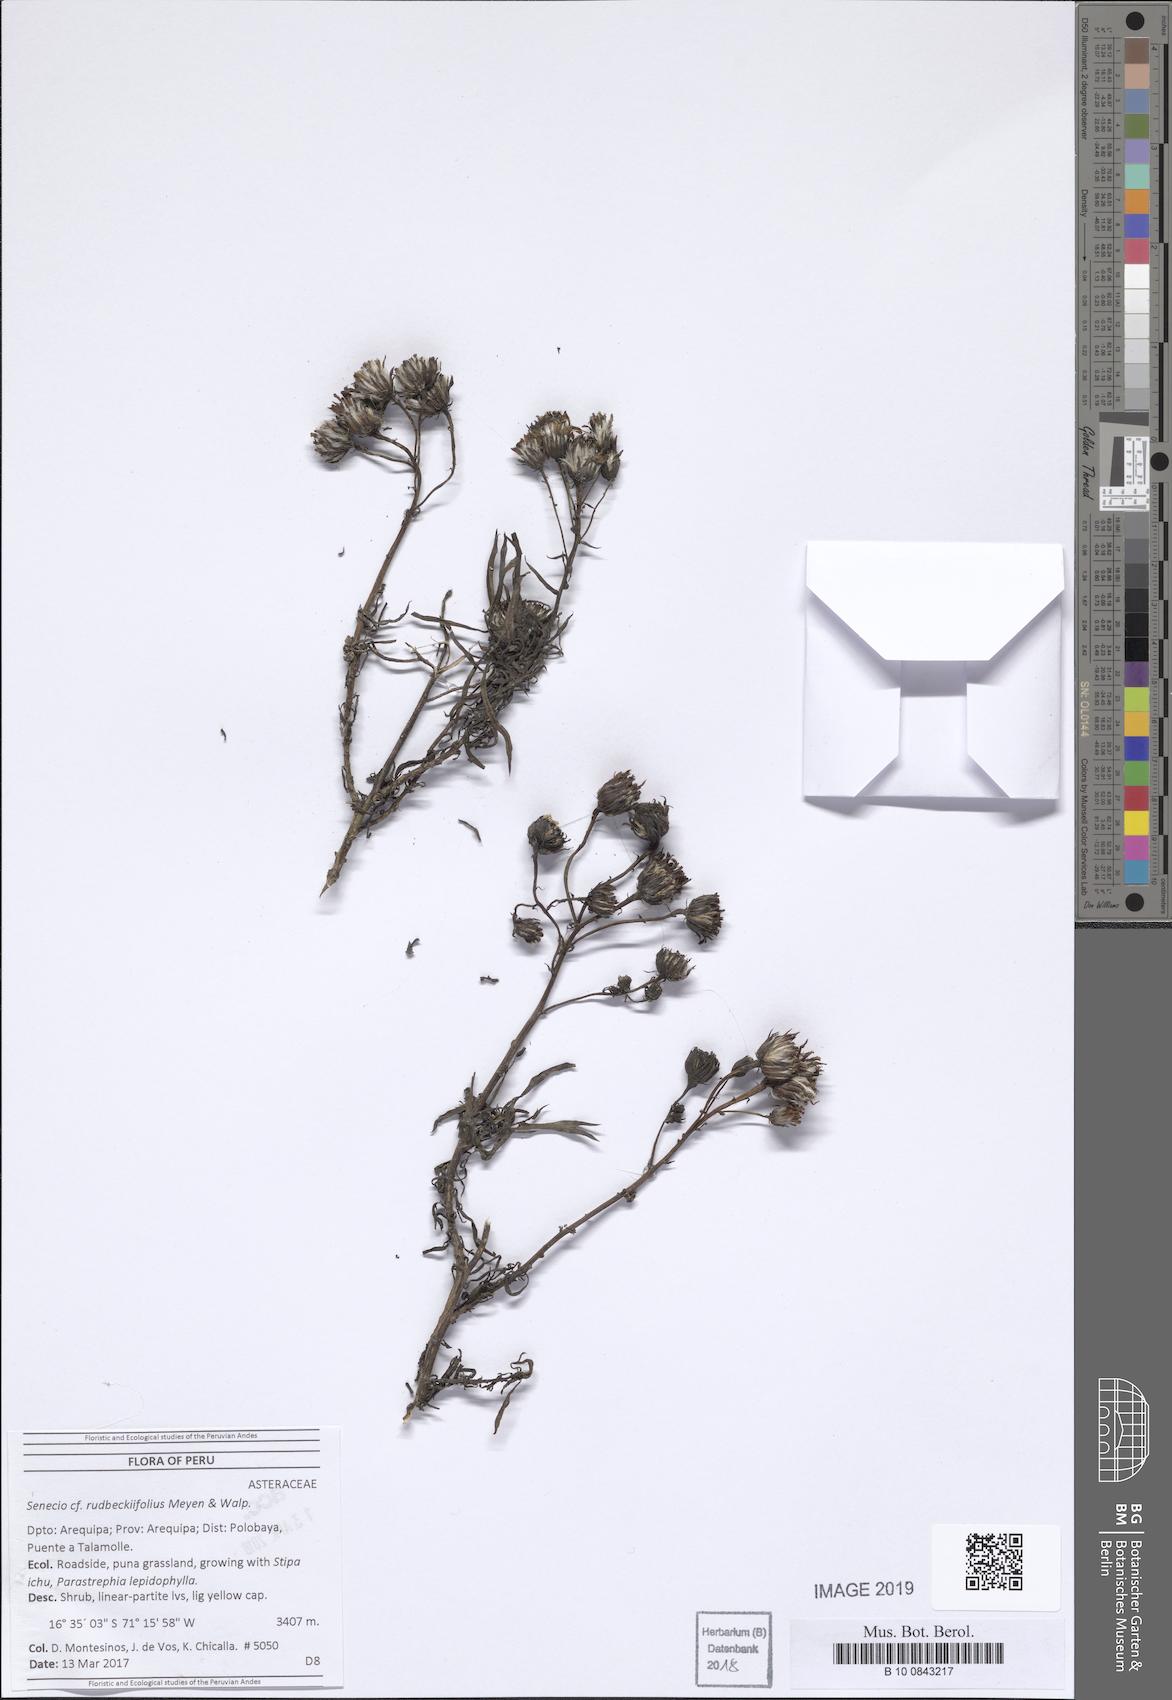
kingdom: Plantae
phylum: Tracheophyta
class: Magnoliopsida
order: Asterales
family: Asteraceae
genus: Senecio
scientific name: Senecio rudbeckiifolius
